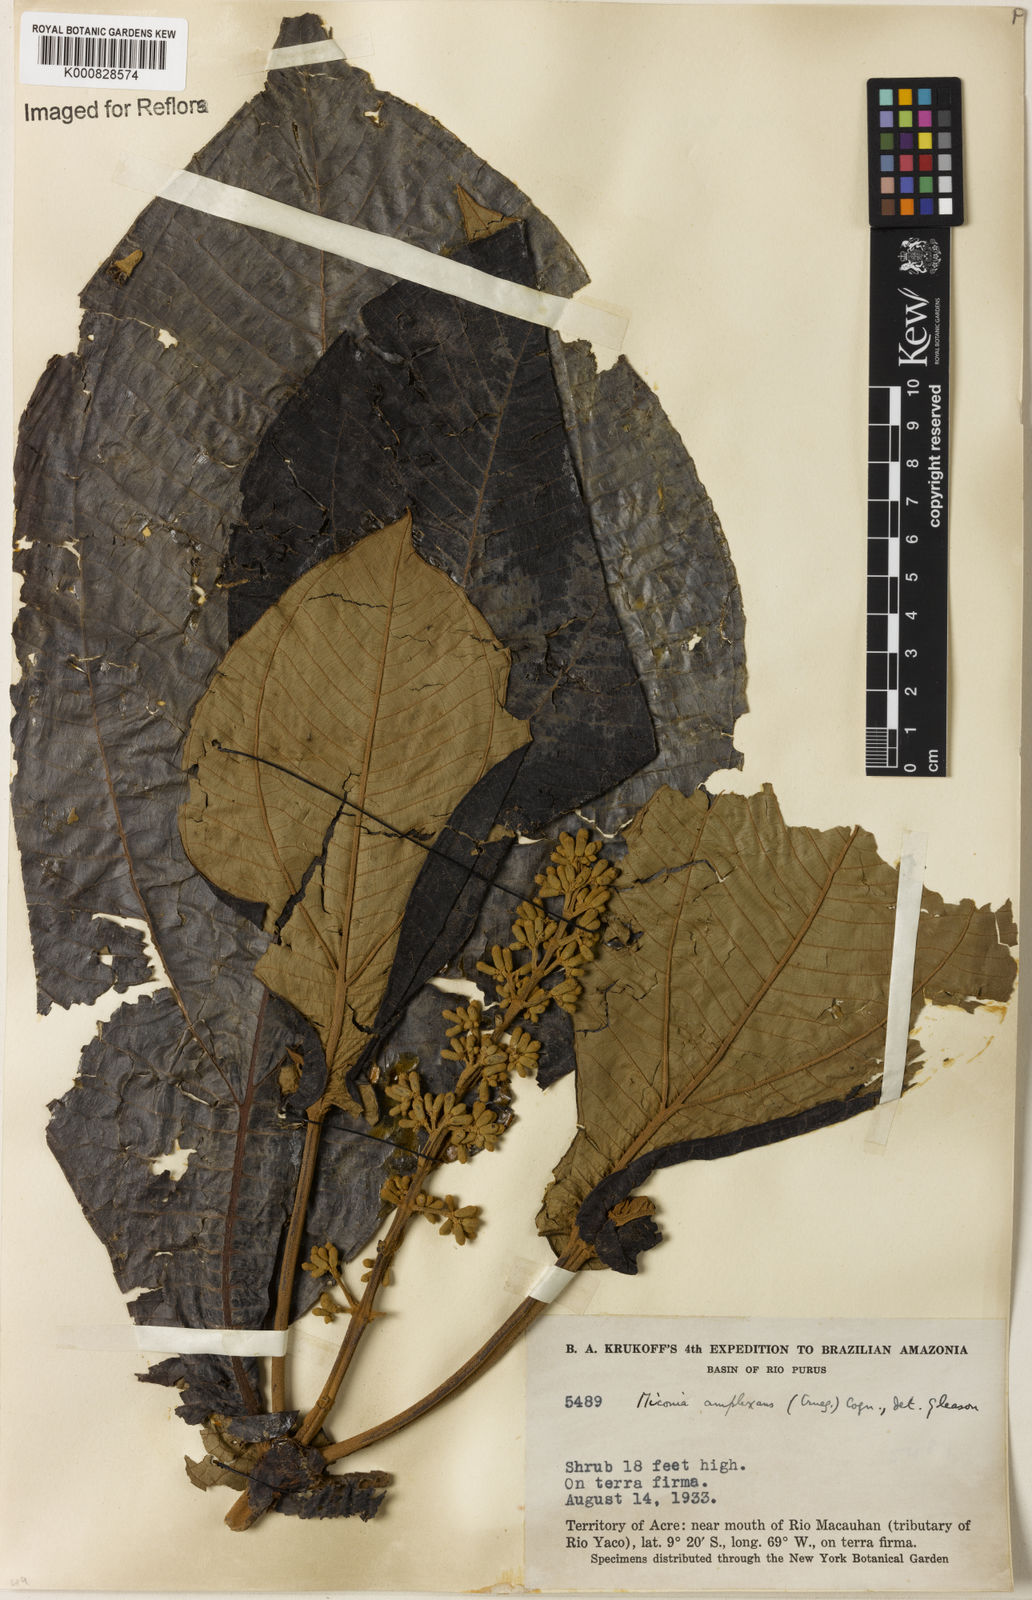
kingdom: Plantae
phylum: Tracheophyta
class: Magnoliopsida
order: Myrtales
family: Melastomataceae
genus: Miconia
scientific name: Miconia tomentosa
